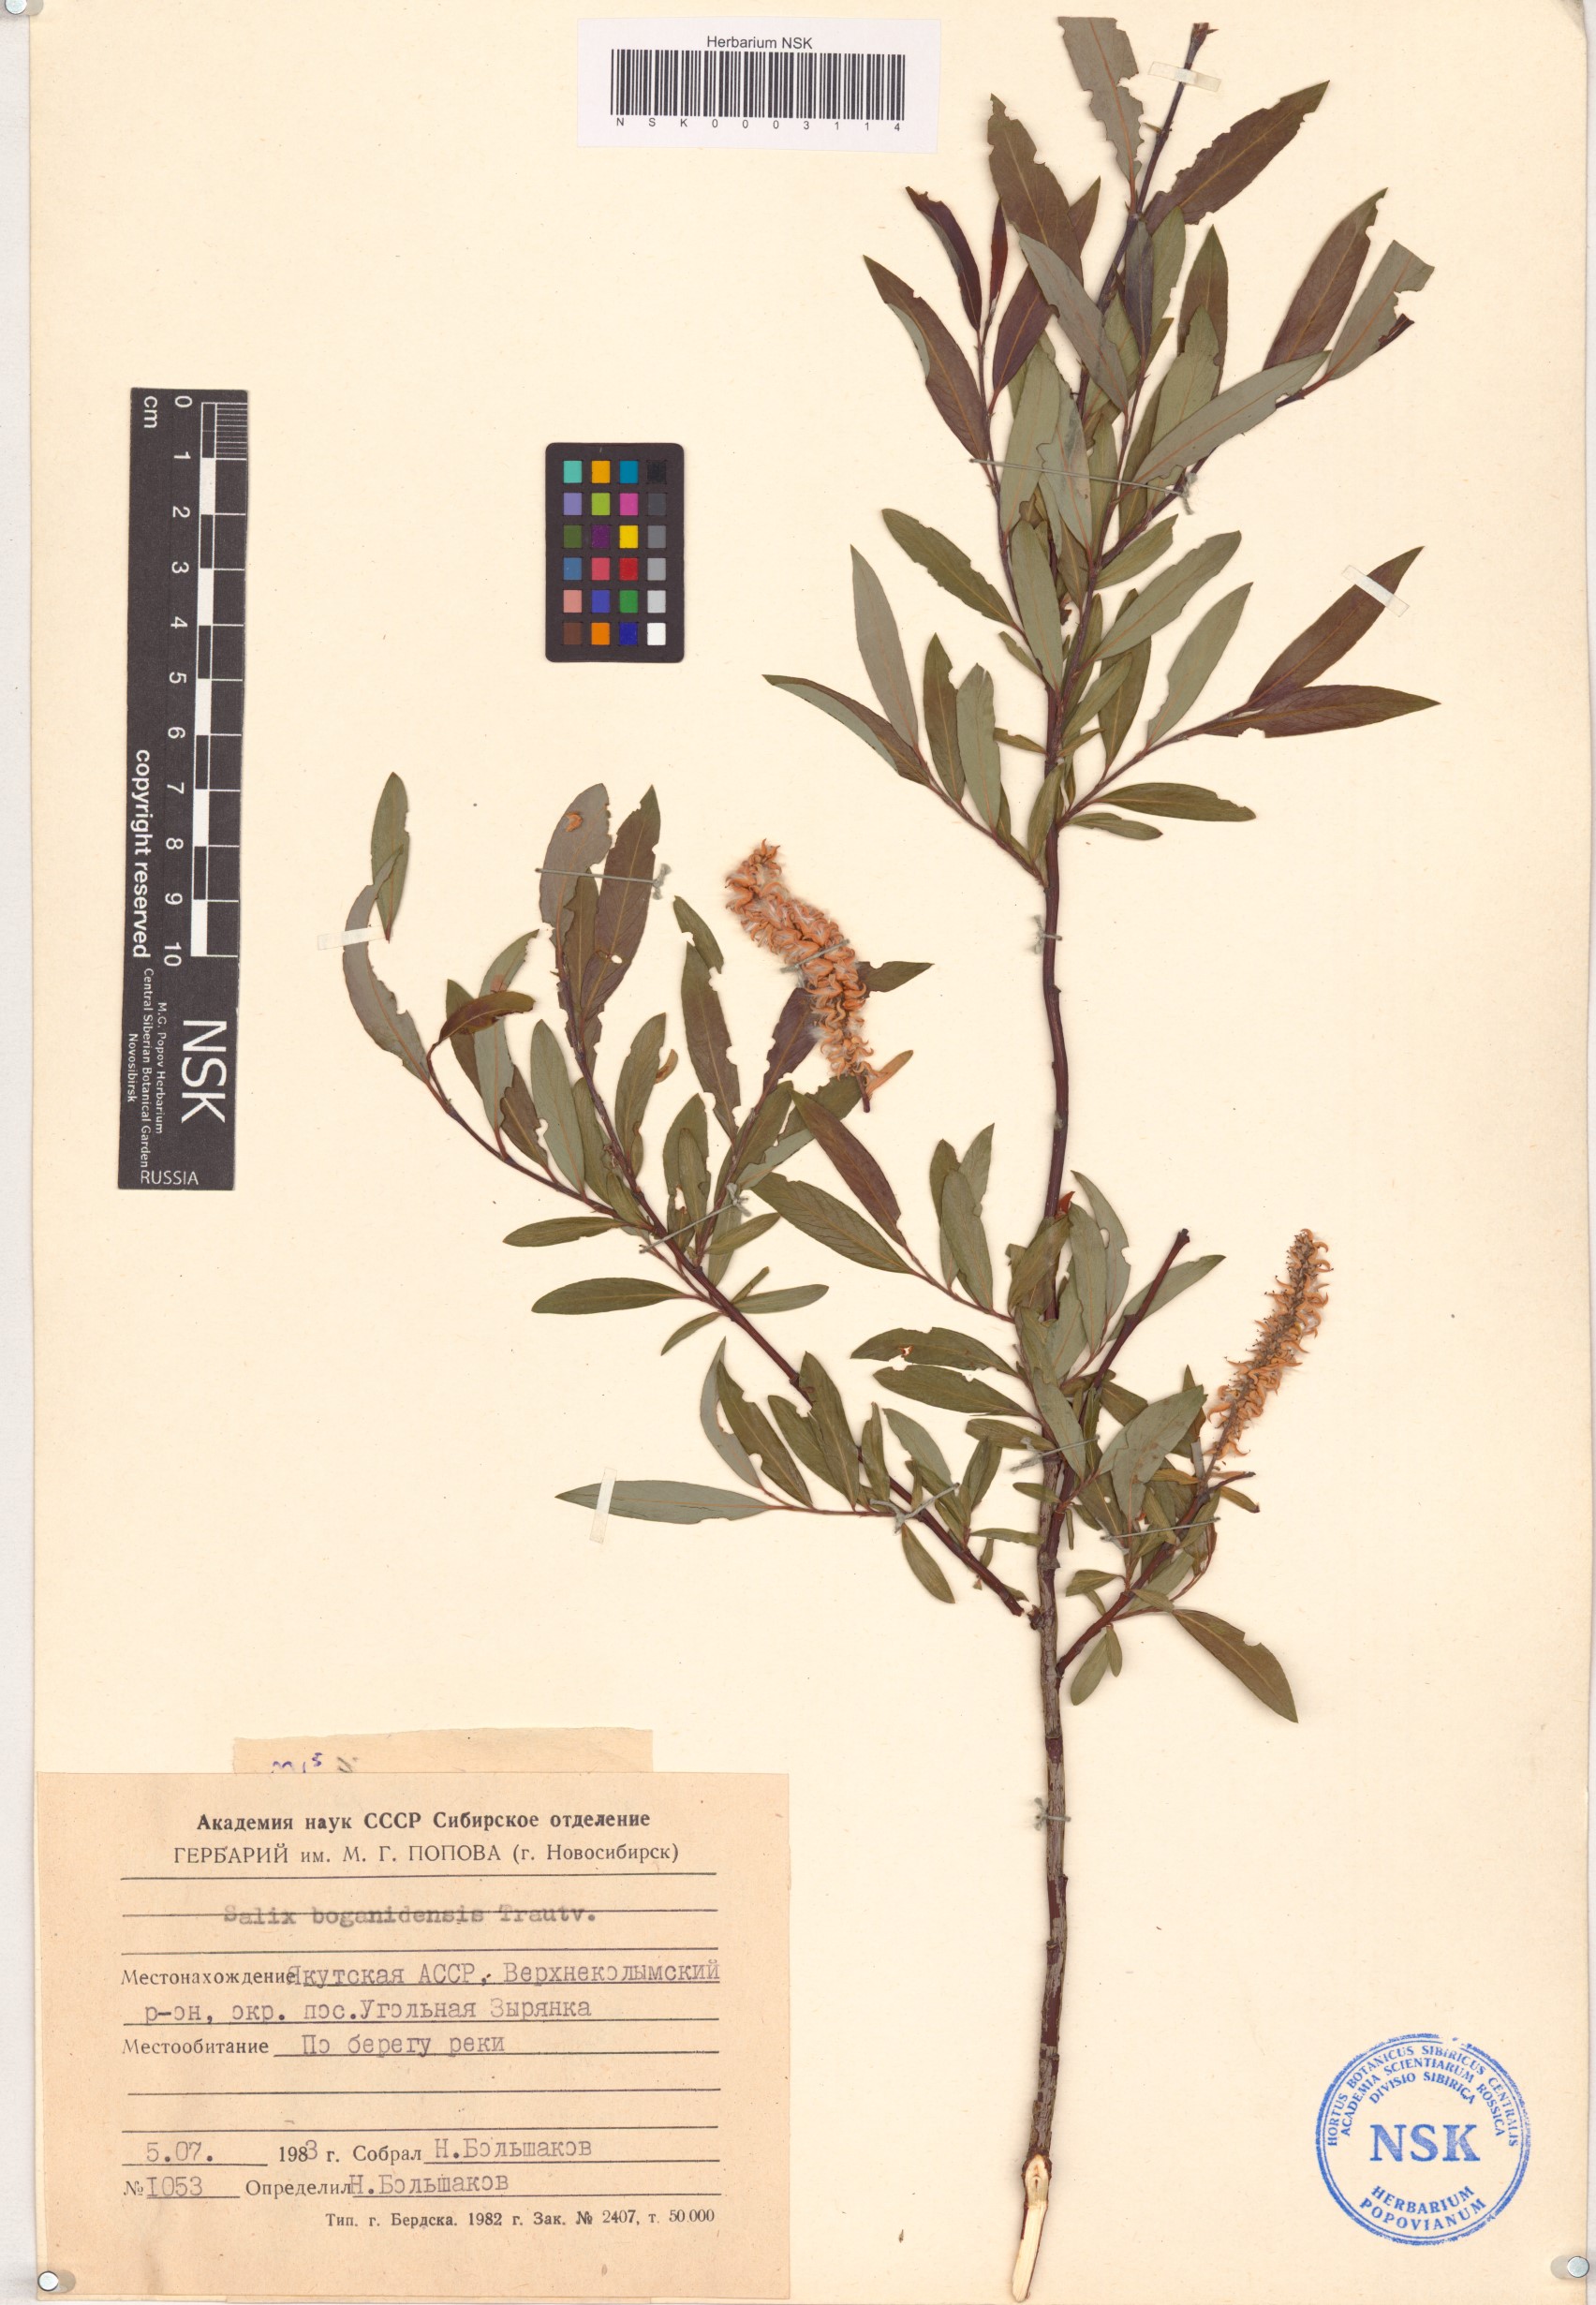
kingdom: Plantae
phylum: Tracheophyta
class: Magnoliopsida
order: Malpighiales
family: Salicaceae
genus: Salix
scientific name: Salix boganidensis
